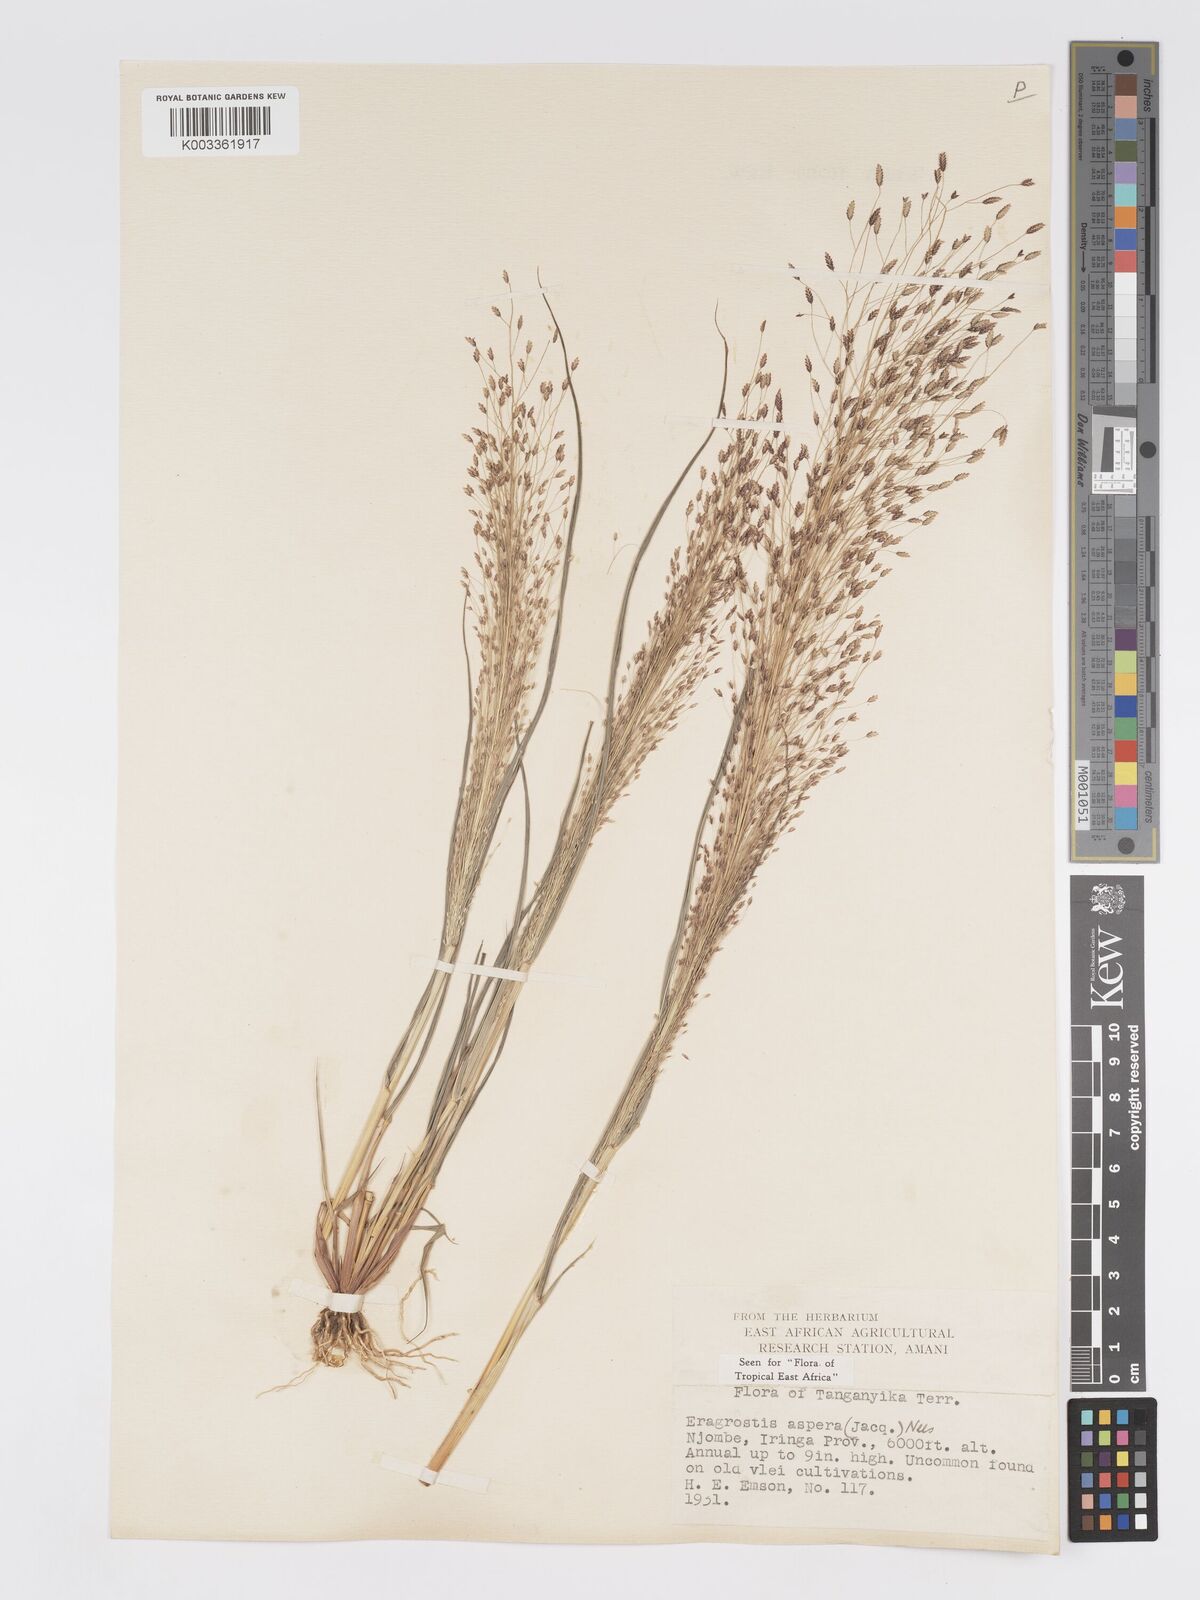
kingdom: Plantae
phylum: Tracheophyta
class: Liliopsida
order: Poales
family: Poaceae
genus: Eragrostis
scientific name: Eragrostis aspera
